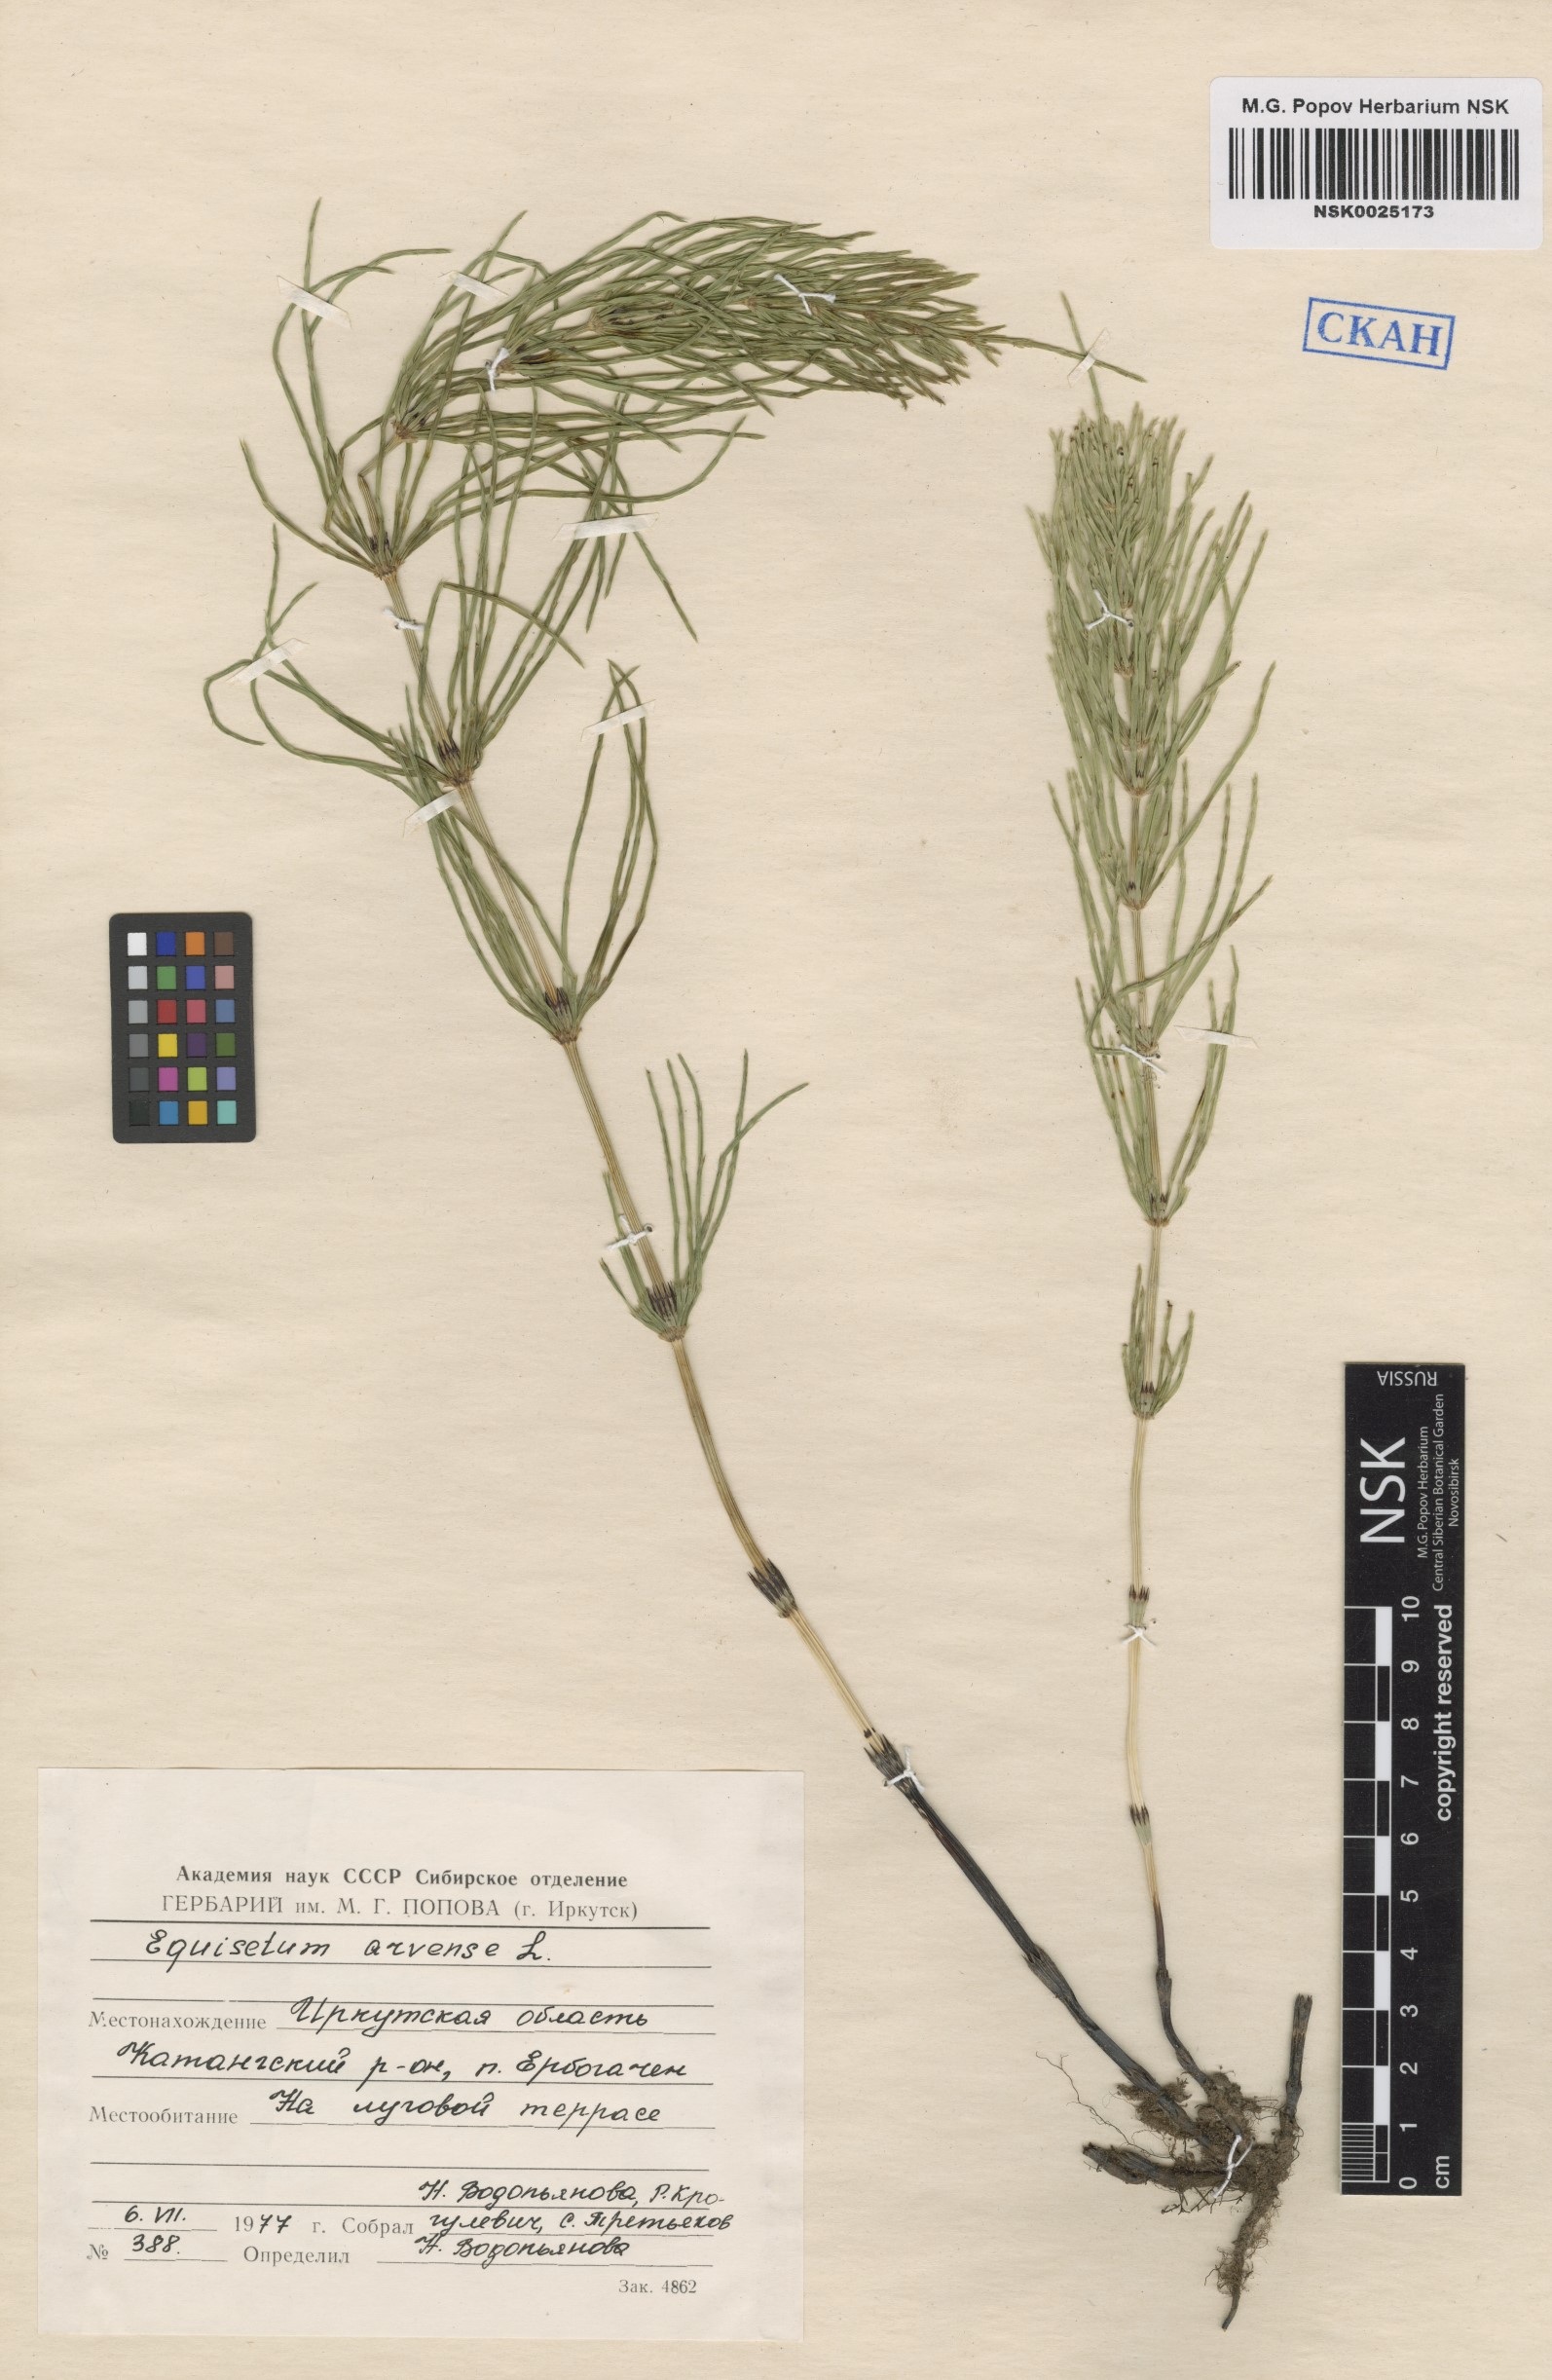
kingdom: Plantae
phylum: Tracheophyta
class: Polypodiopsida
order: Equisetales
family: Equisetaceae
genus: Equisetum
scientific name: Equisetum arvense
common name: Field horsetail
